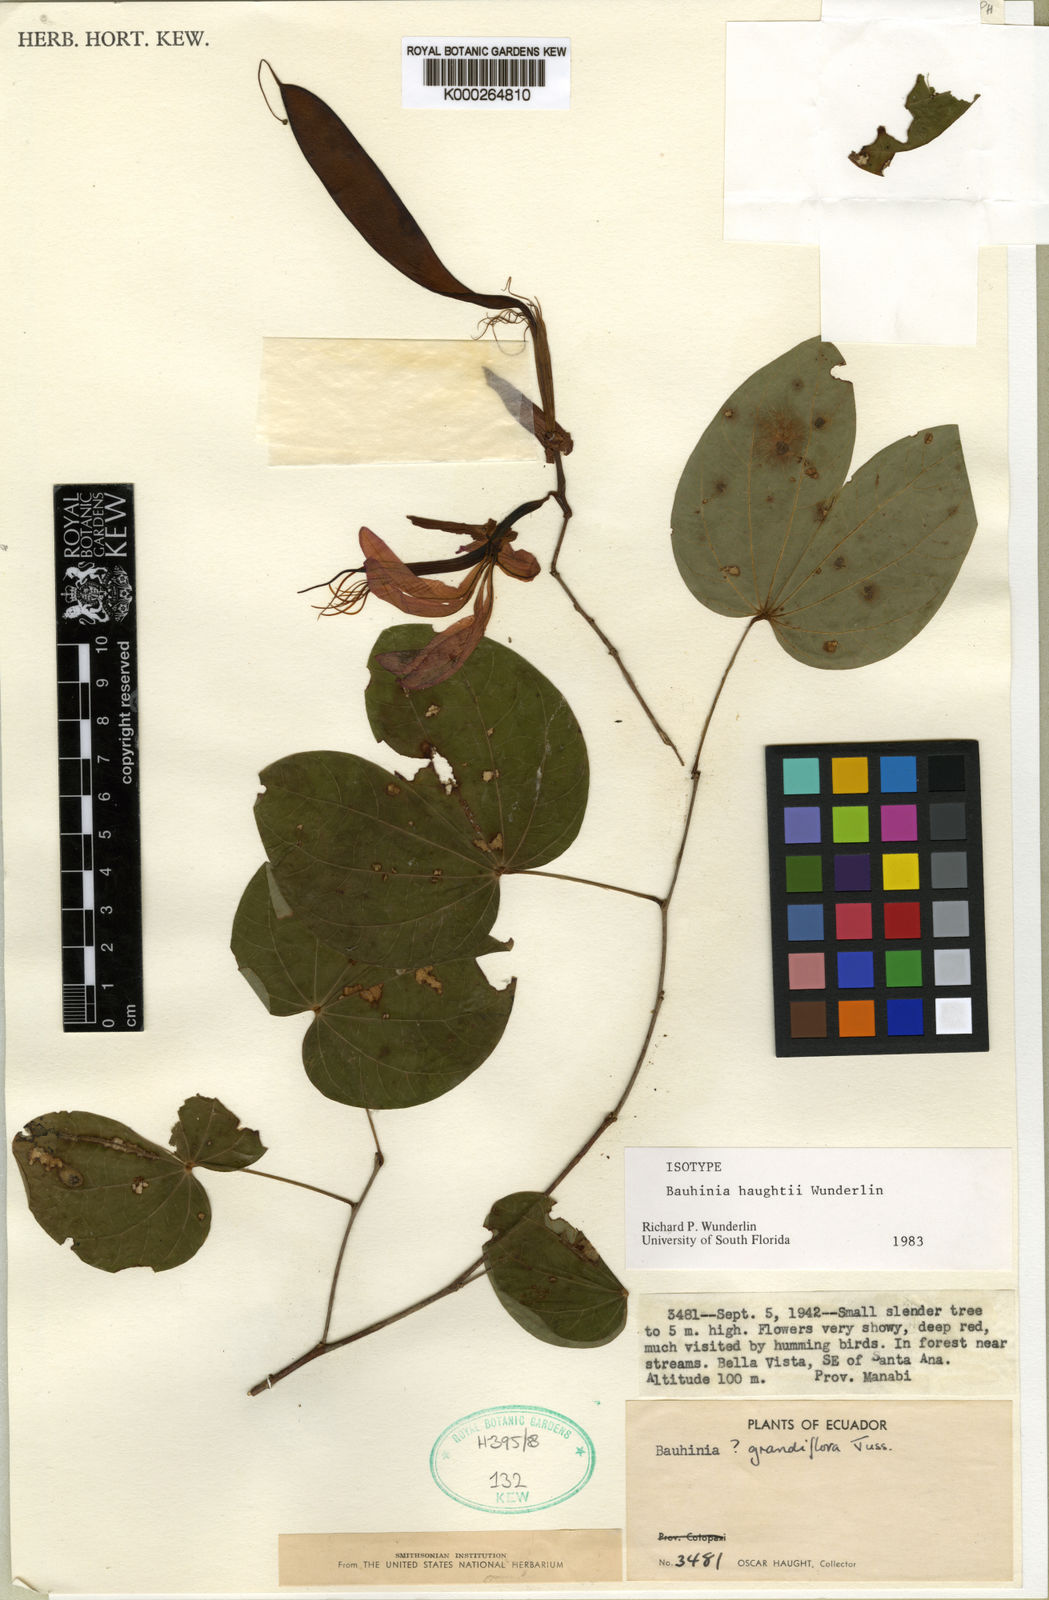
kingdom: Plantae
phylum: Tracheophyta
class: Magnoliopsida
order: Fabales
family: Fabaceae
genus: Bauhinia
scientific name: Bauhinia haughtii
